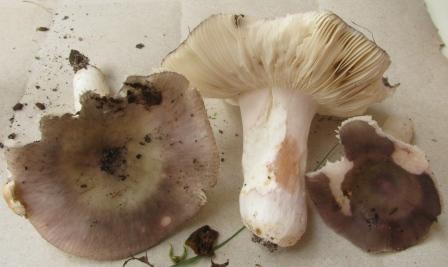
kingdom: Fungi
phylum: Basidiomycota
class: Agaricomycetes
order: Russulales
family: Russulaceae
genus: Russula
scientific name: Russula grisea
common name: grålig skørhat
